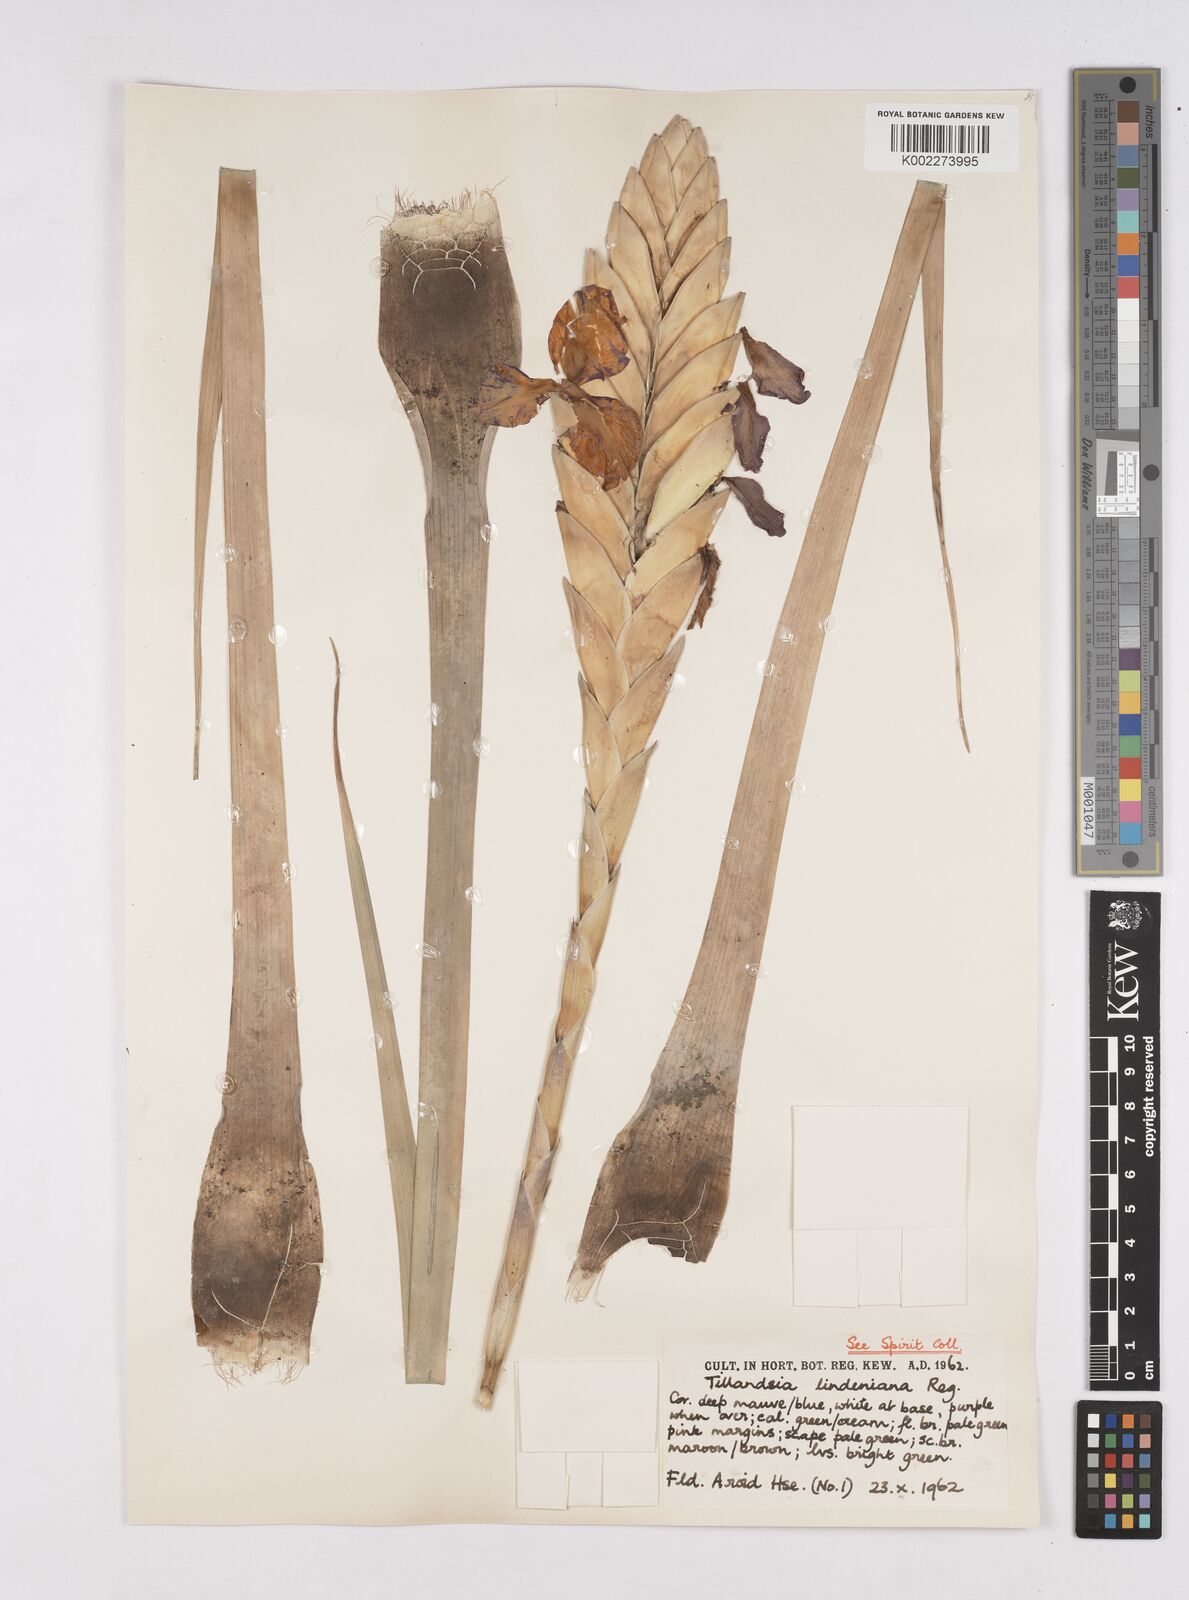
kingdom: Plantae
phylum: Tracheophyta
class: Liliopsida
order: Poales
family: Bromeliaceae
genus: Wallisia
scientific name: Wallisia lindeniana
